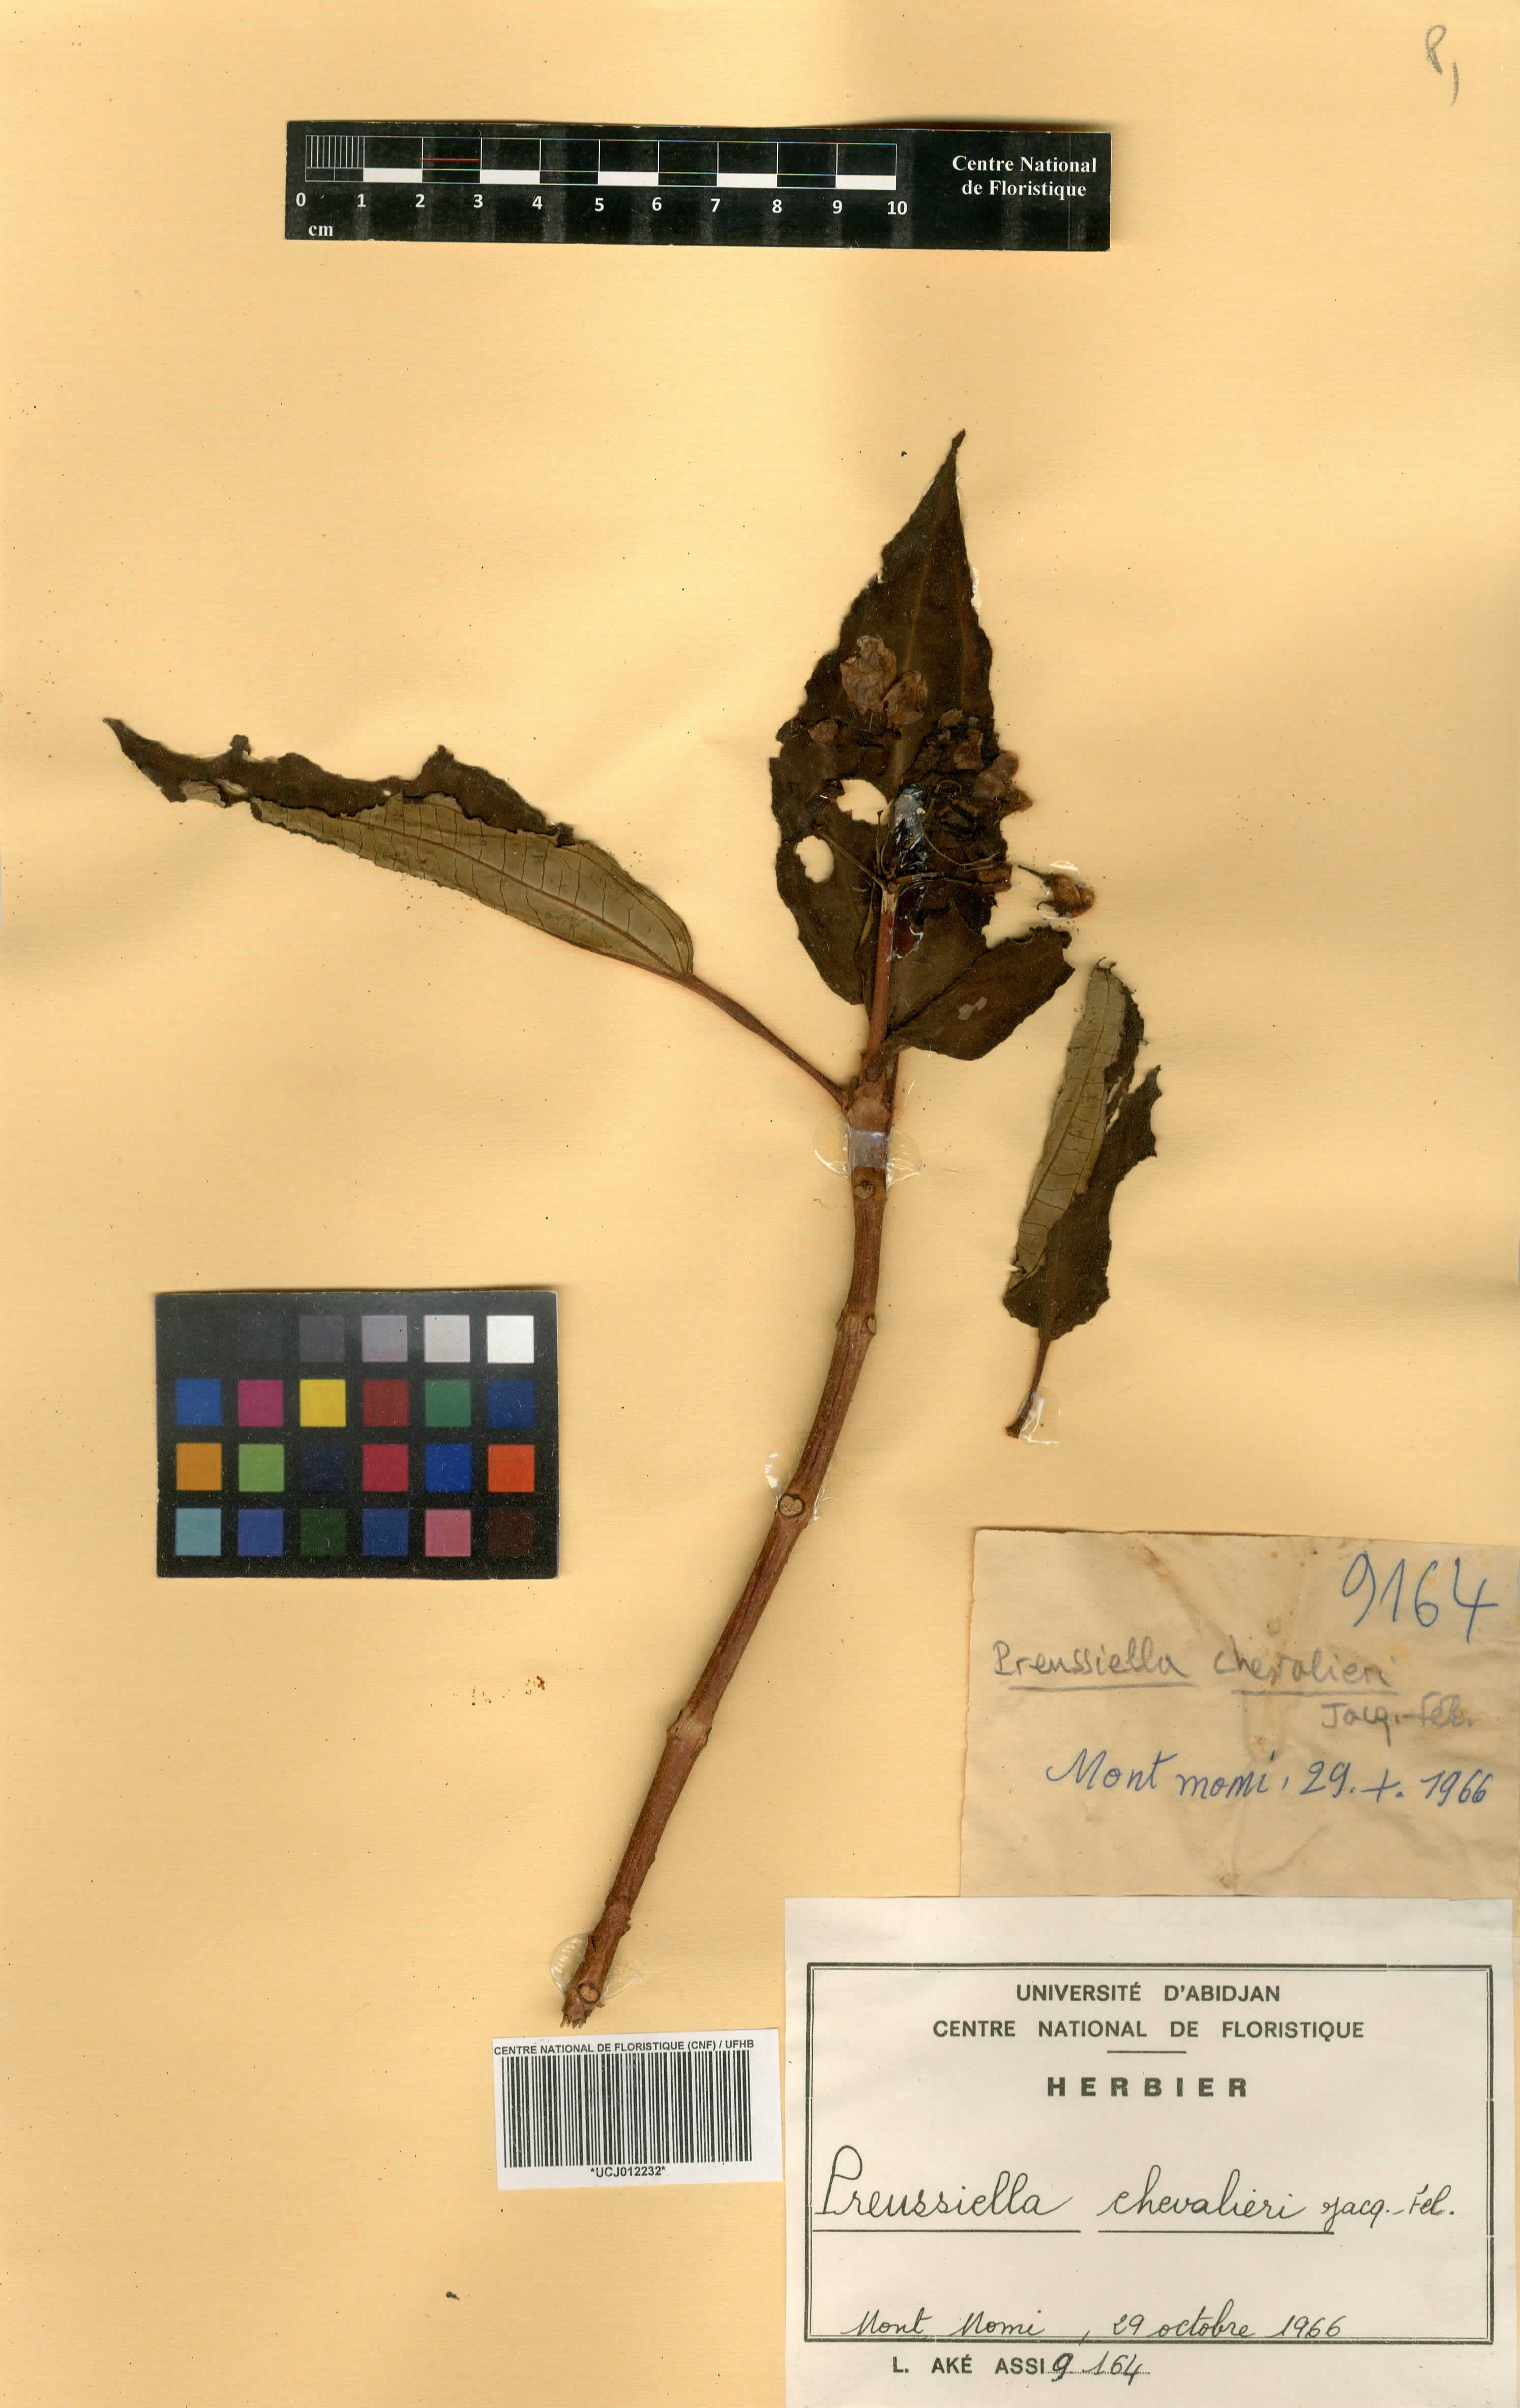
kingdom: Plantae
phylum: Tracheophyta
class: Magnoliopsida
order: Myrtales
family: Melastomataceae
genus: Preussiella
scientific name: Preussiella kamerunensis
